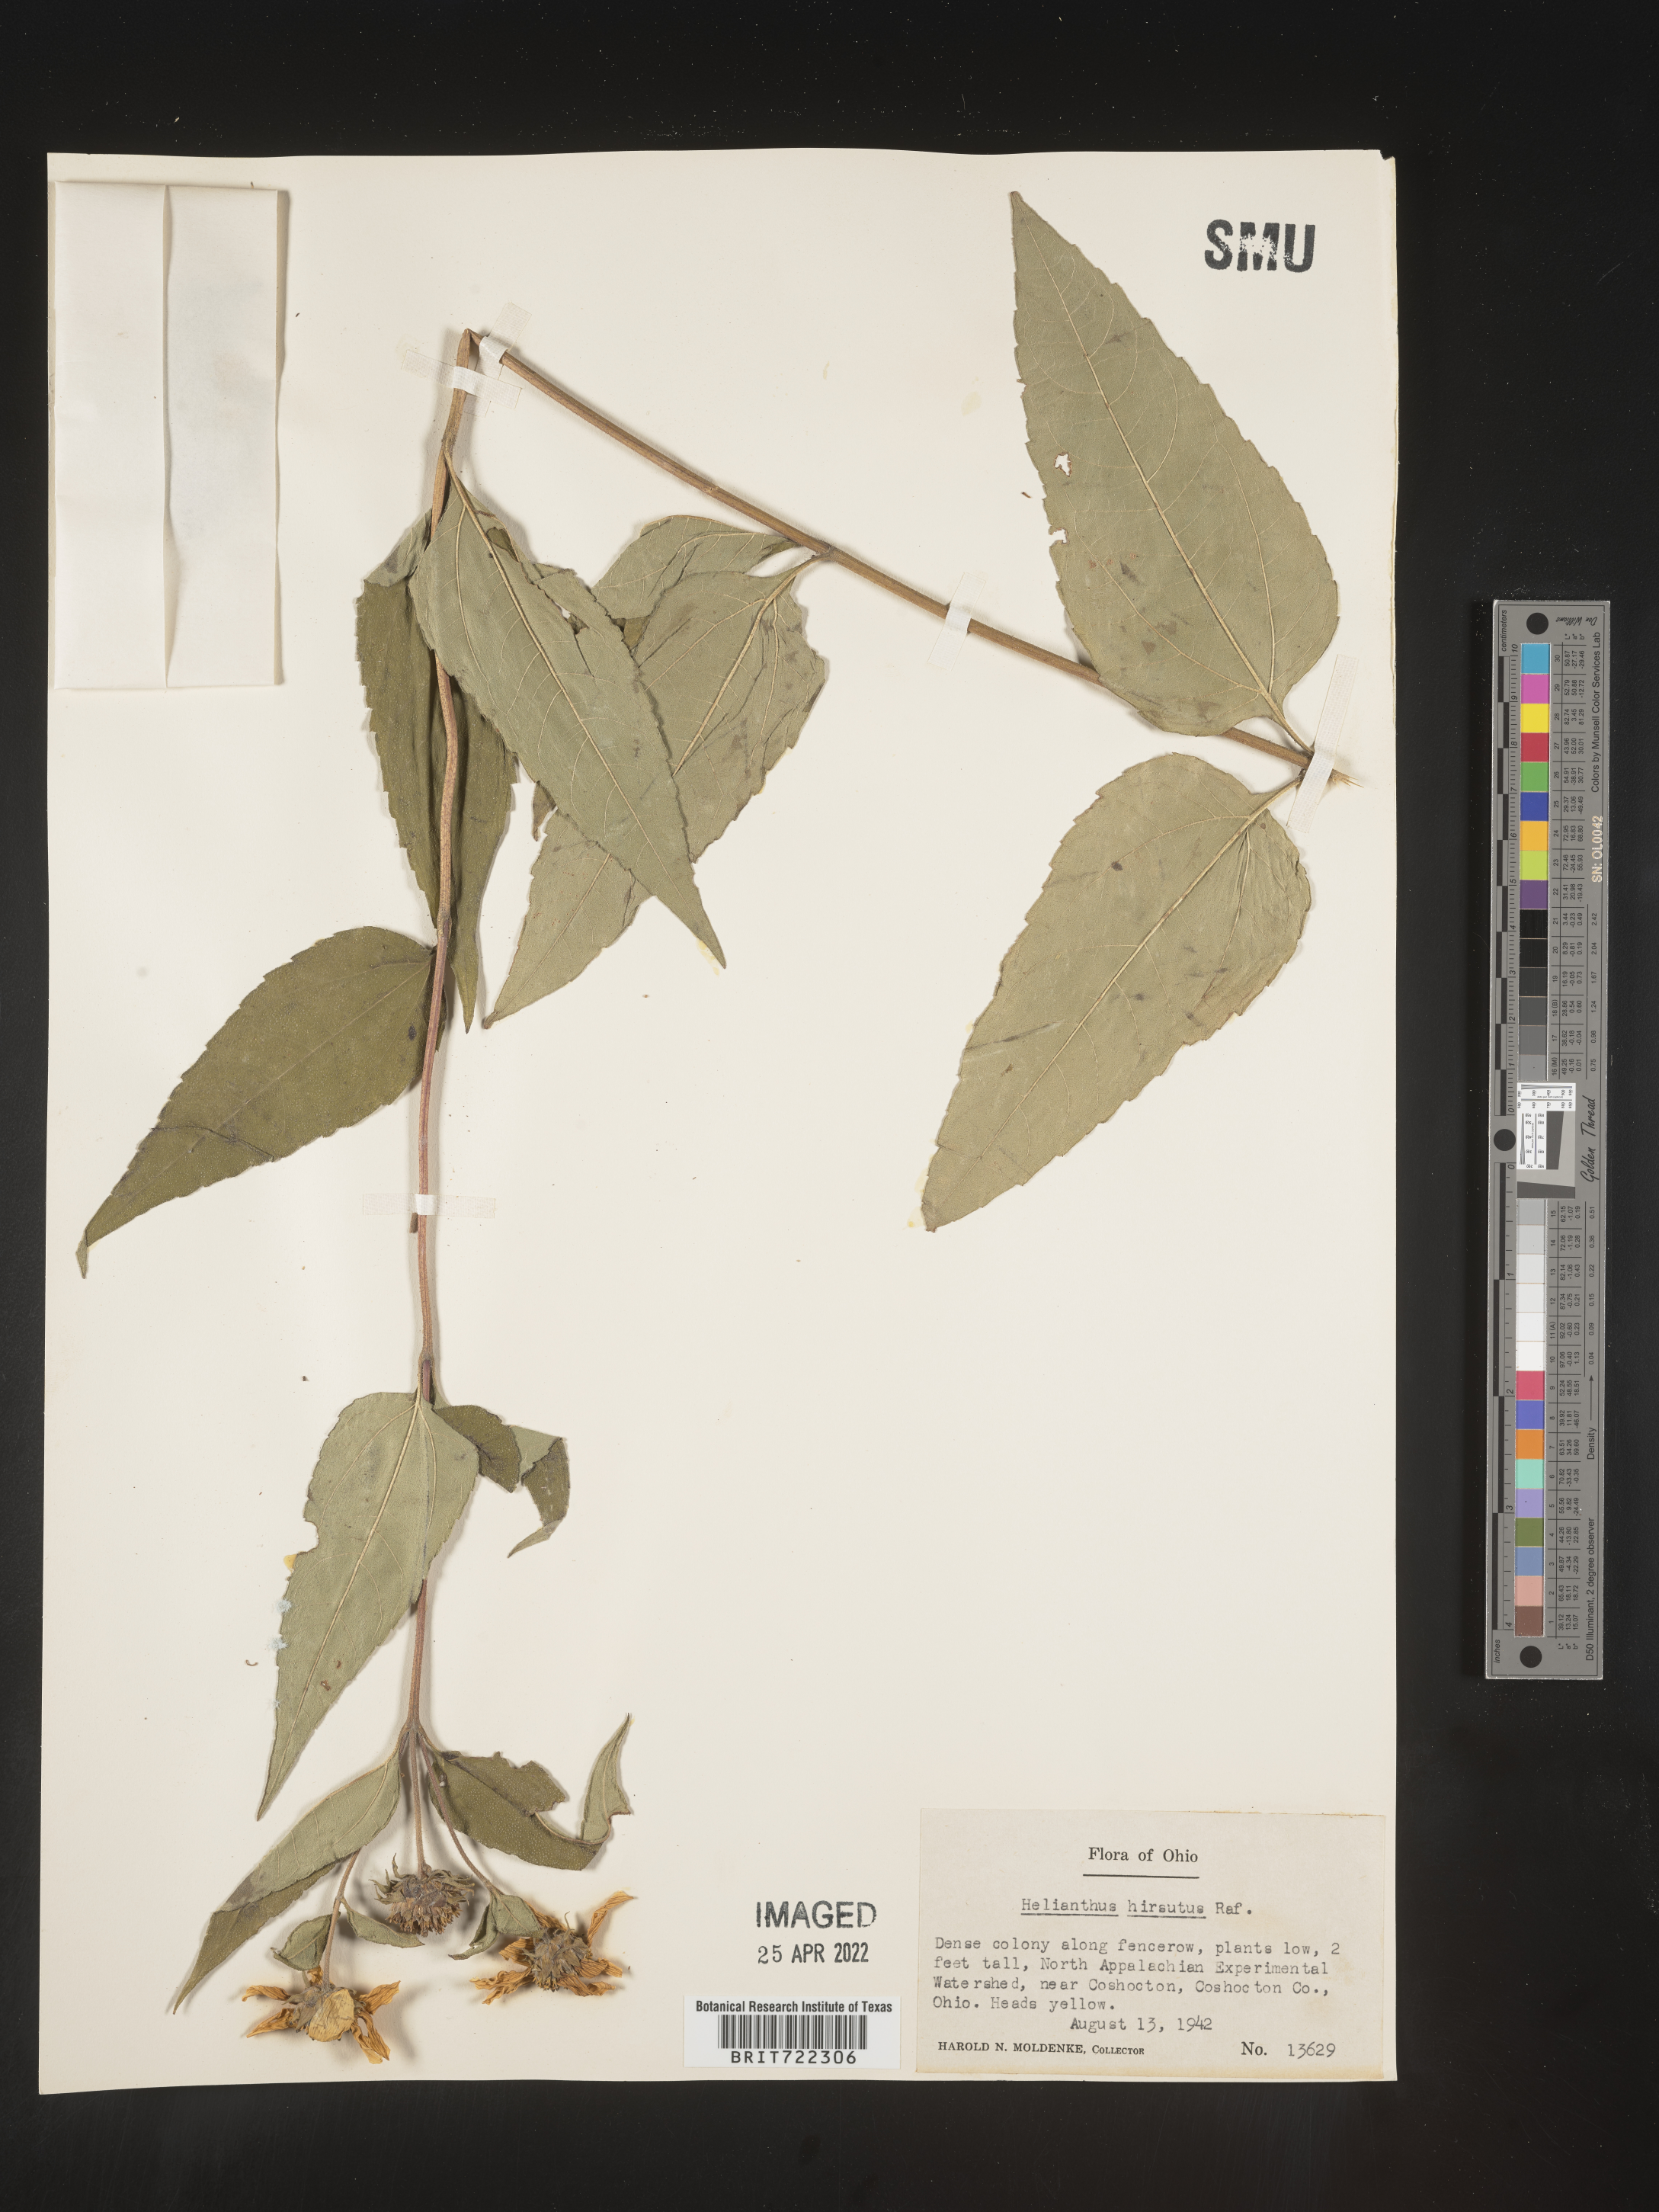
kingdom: Plantae
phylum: Tracheophyta
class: Magnoliopsida
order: Asterales
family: Asteraceae
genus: Helianthus
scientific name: Helianthus hirsutus
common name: Hairy sunflower
